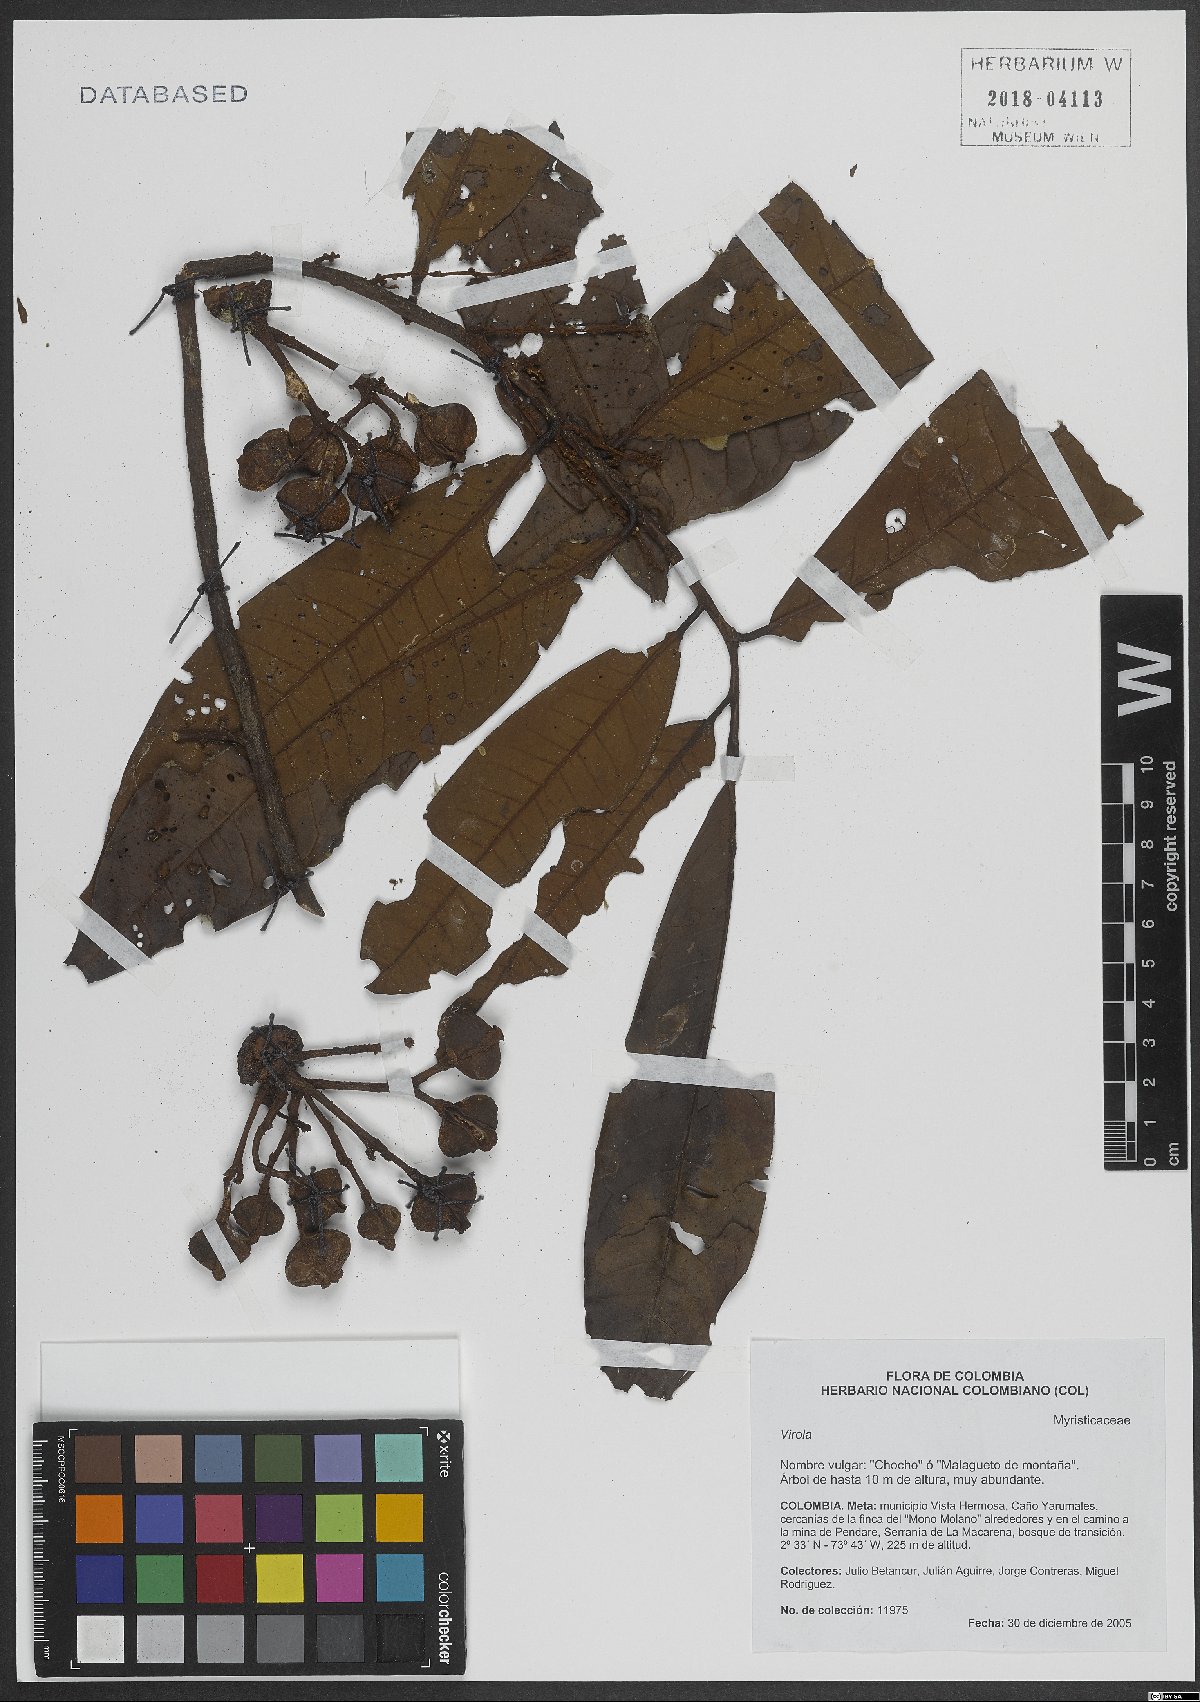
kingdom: Plantae
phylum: Tracheophyta
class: Magnoliopsida
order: Magnoliales
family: Myristicaceae
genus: Virola
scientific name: Virola
